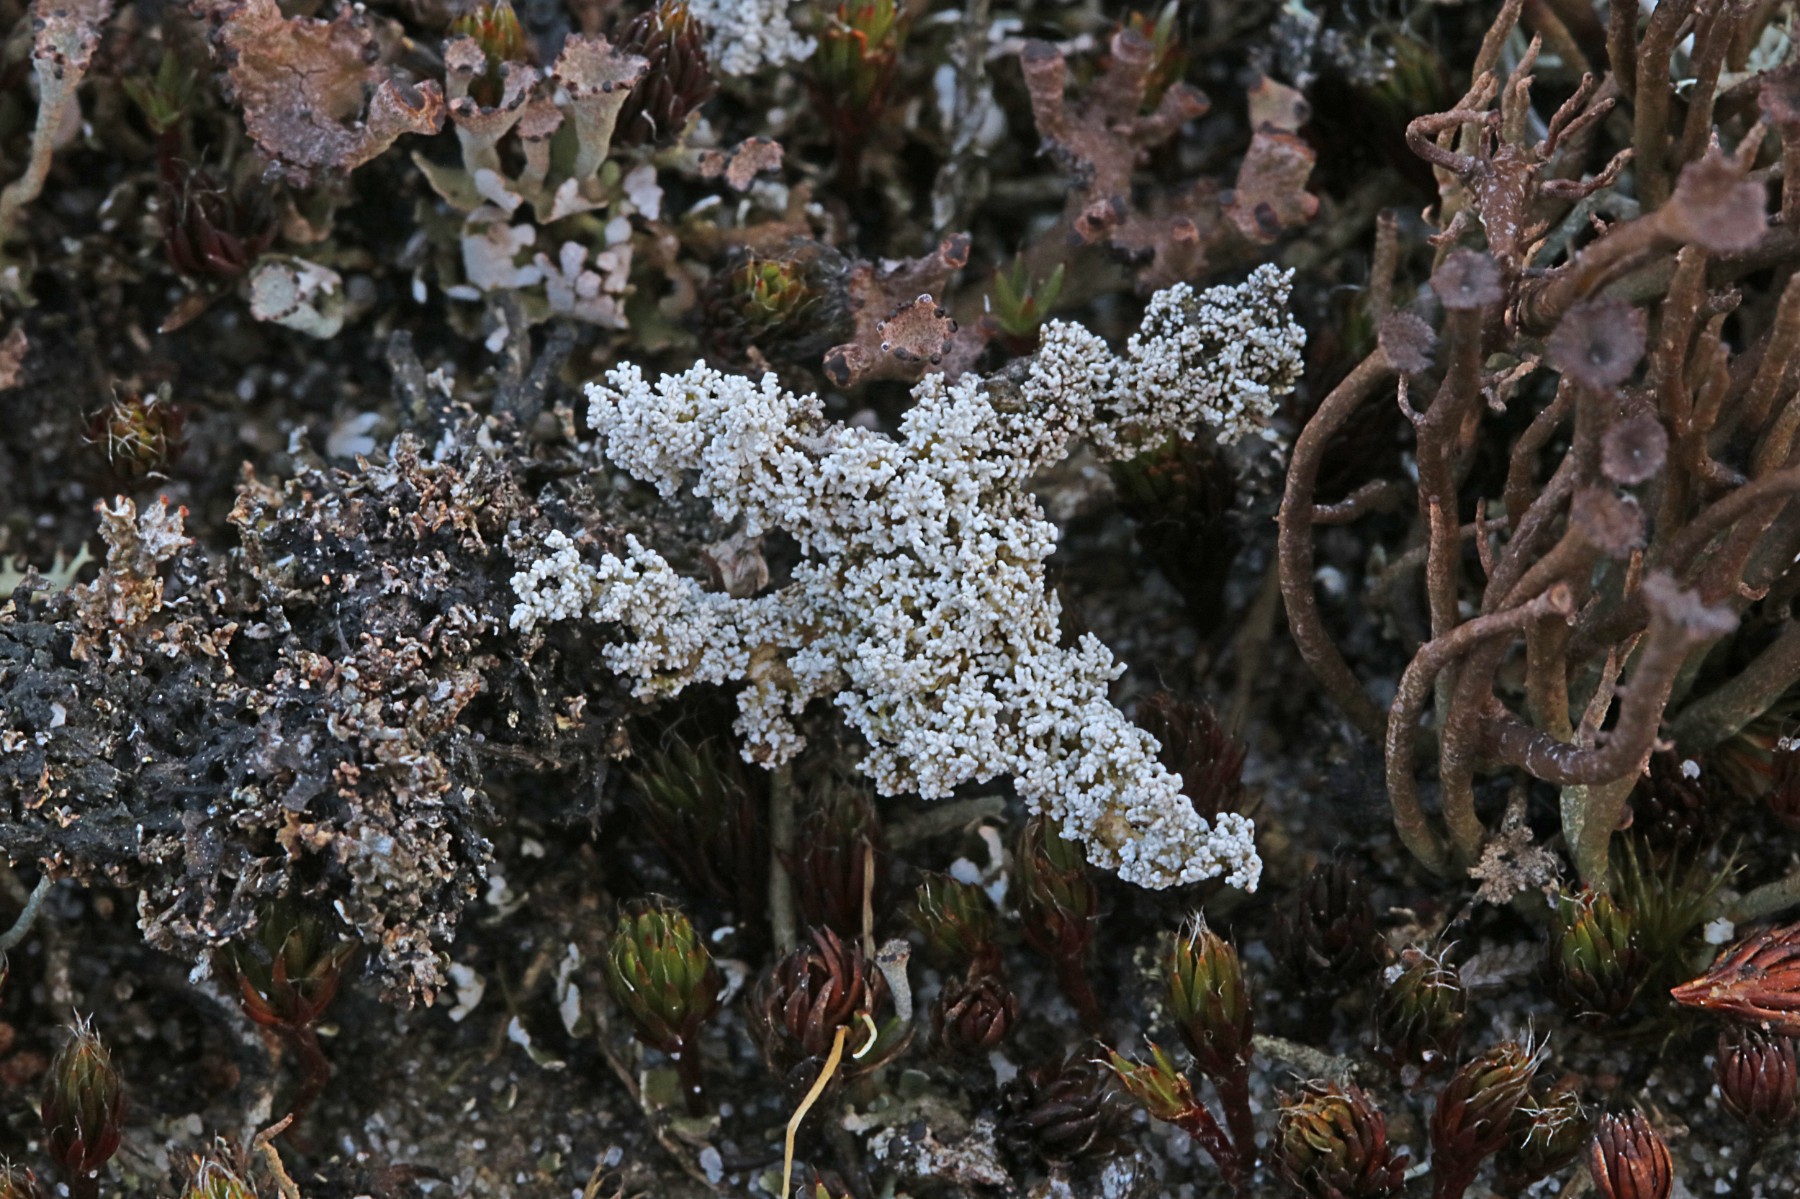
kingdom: Fungi
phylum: Ascomycota
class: Lecanoromycetes
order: Lecanorales
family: Stereocaulaceae
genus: Stereocaulon
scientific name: Stereocaulon saxatile
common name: klit-korallav
